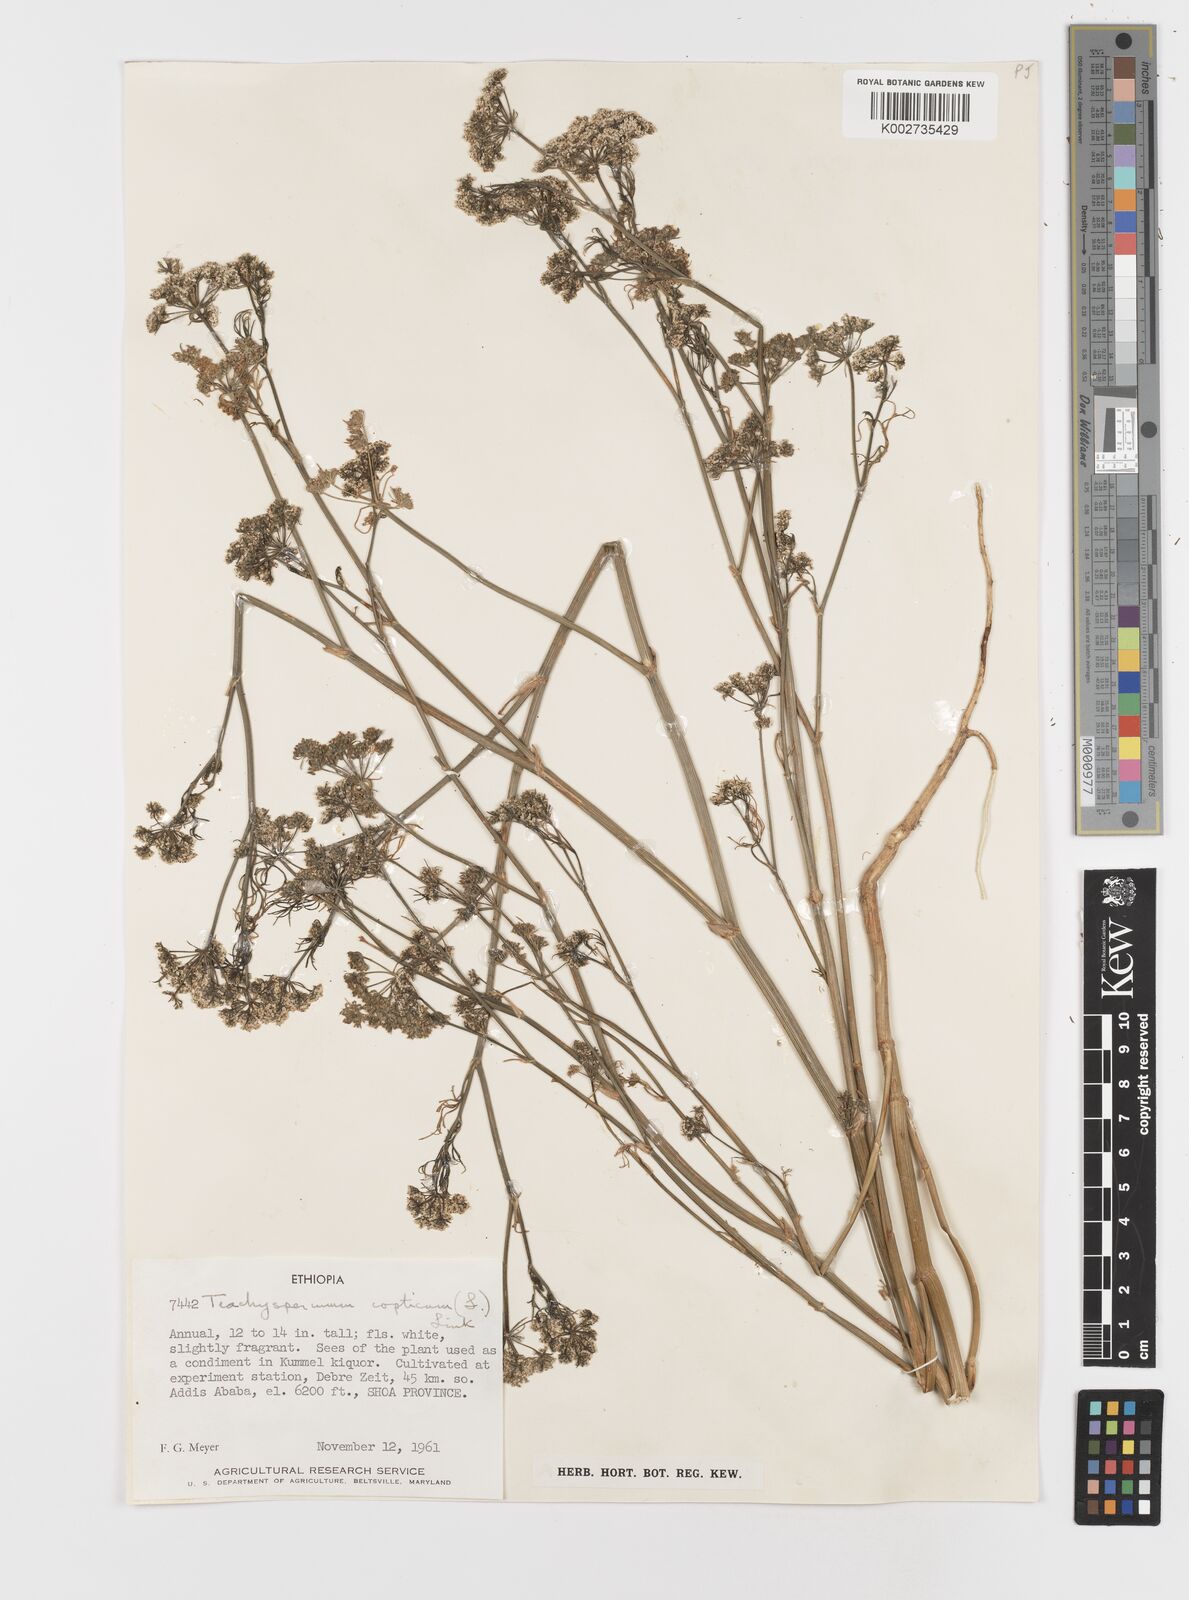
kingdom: Plantae
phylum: Tracheophyta
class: Magnoliopsida
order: Apiales
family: Apiaceae
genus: Trachyspermum
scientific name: Trachyspermum ammi
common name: Ajowan
